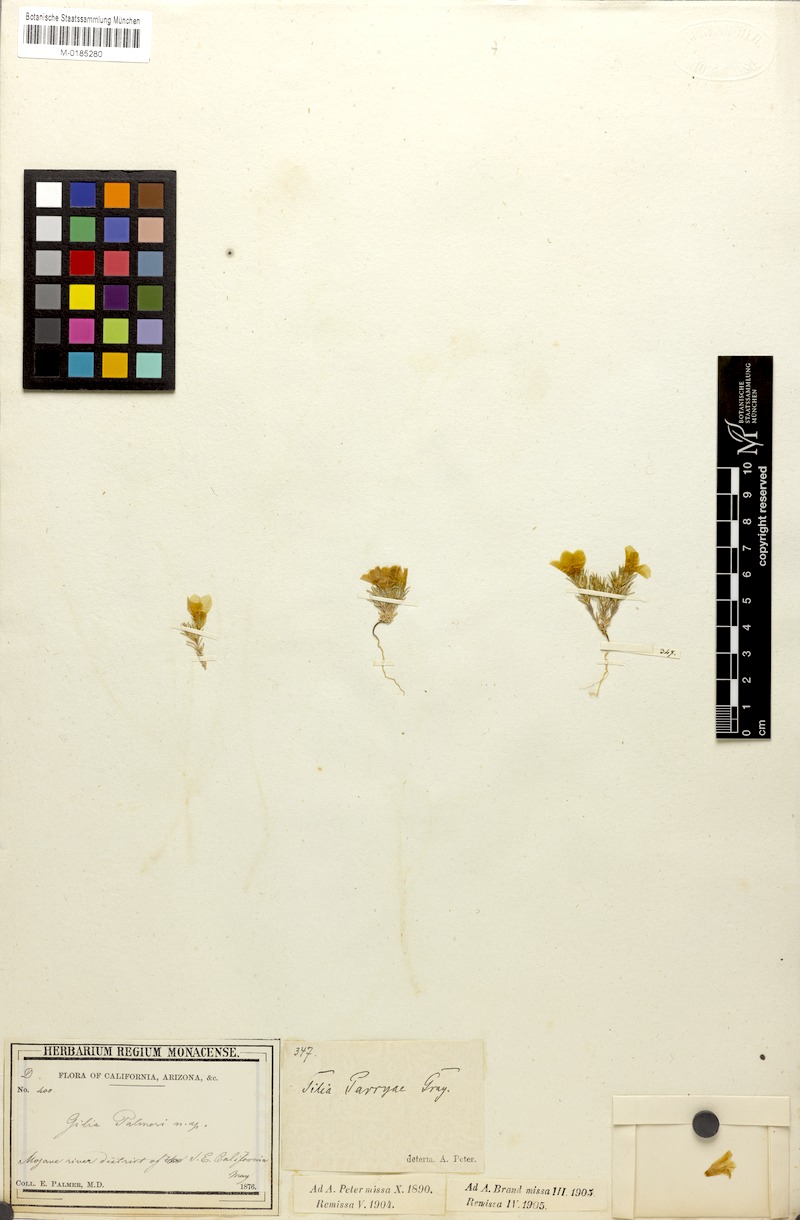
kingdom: Plantae
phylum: Tracheophyta
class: Magnoliopsida
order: Ericales
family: Polemoniaceae
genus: Linanthus
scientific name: Linanthus parryae
